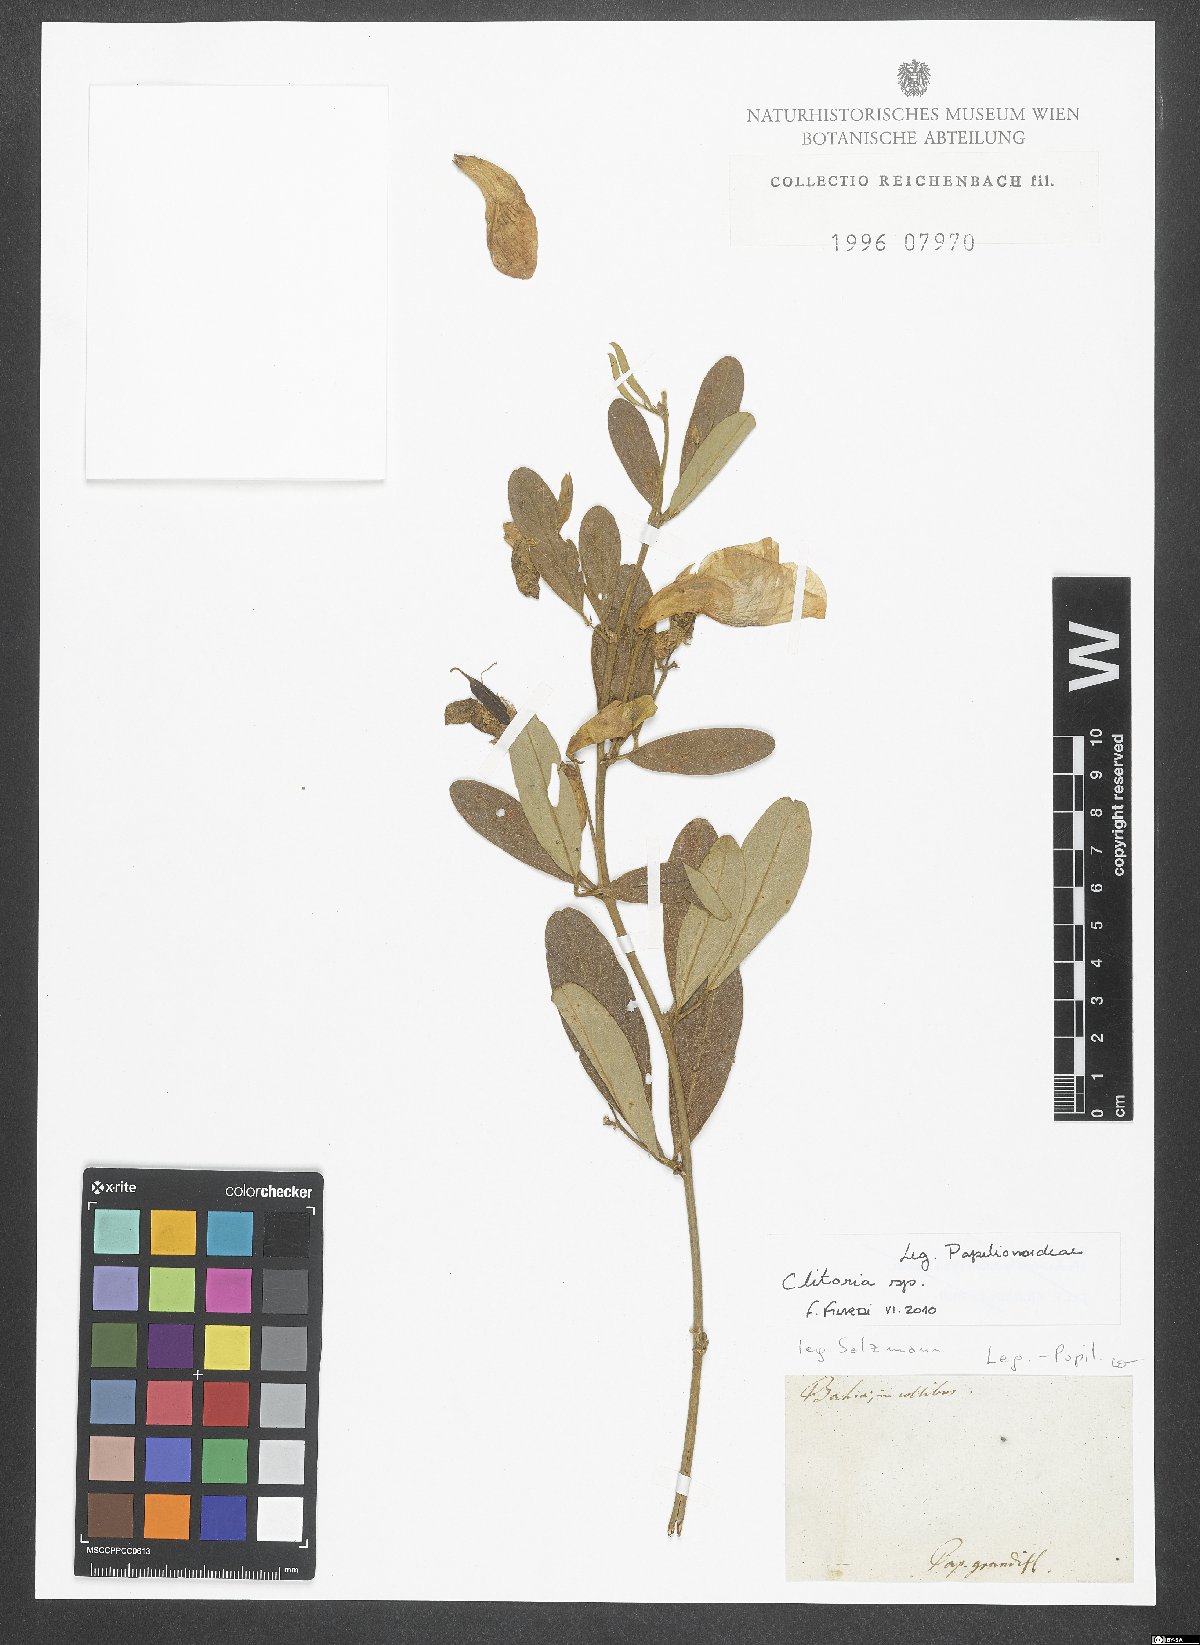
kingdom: Plantae
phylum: Tracheophyta
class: Magnoliopsida
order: Fabales
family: Fabaceae
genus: Clitoria
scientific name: Clitoria
